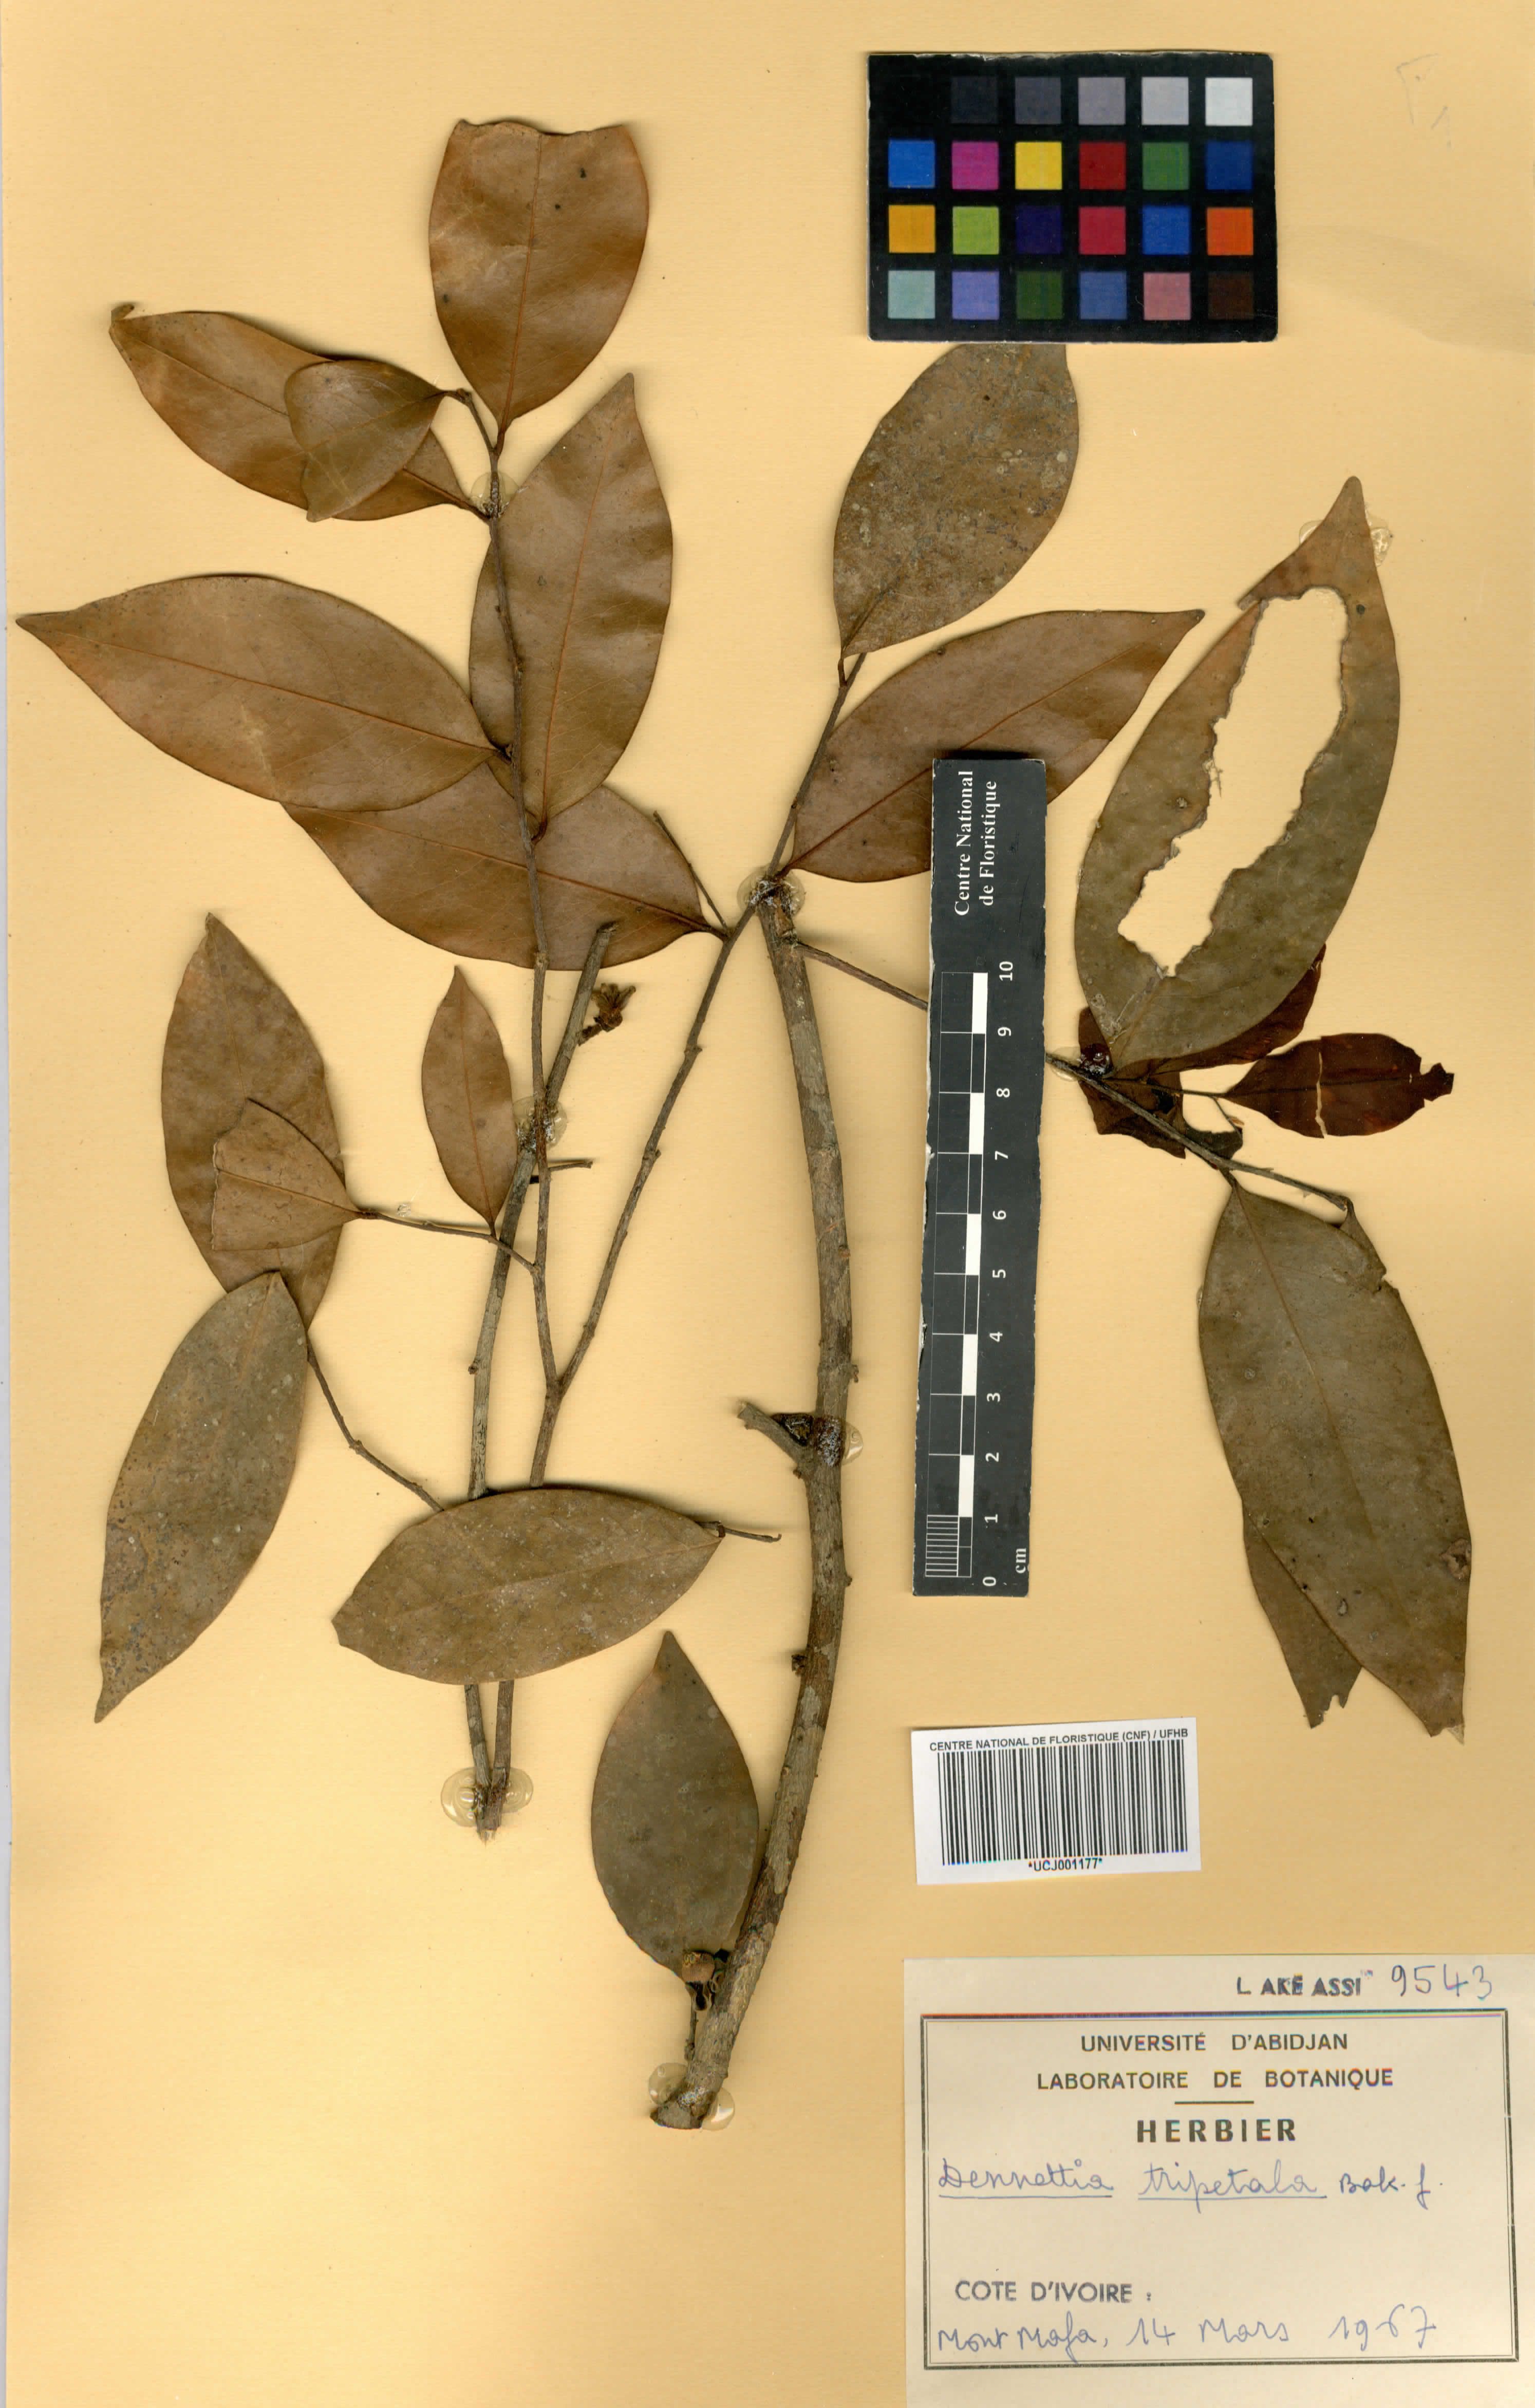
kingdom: Plantae
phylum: Tracheophyta
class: Magnoliopsida
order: Magnoliales
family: Annonaceae
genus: Uvariopsis
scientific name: Uvariopsis tripetala
